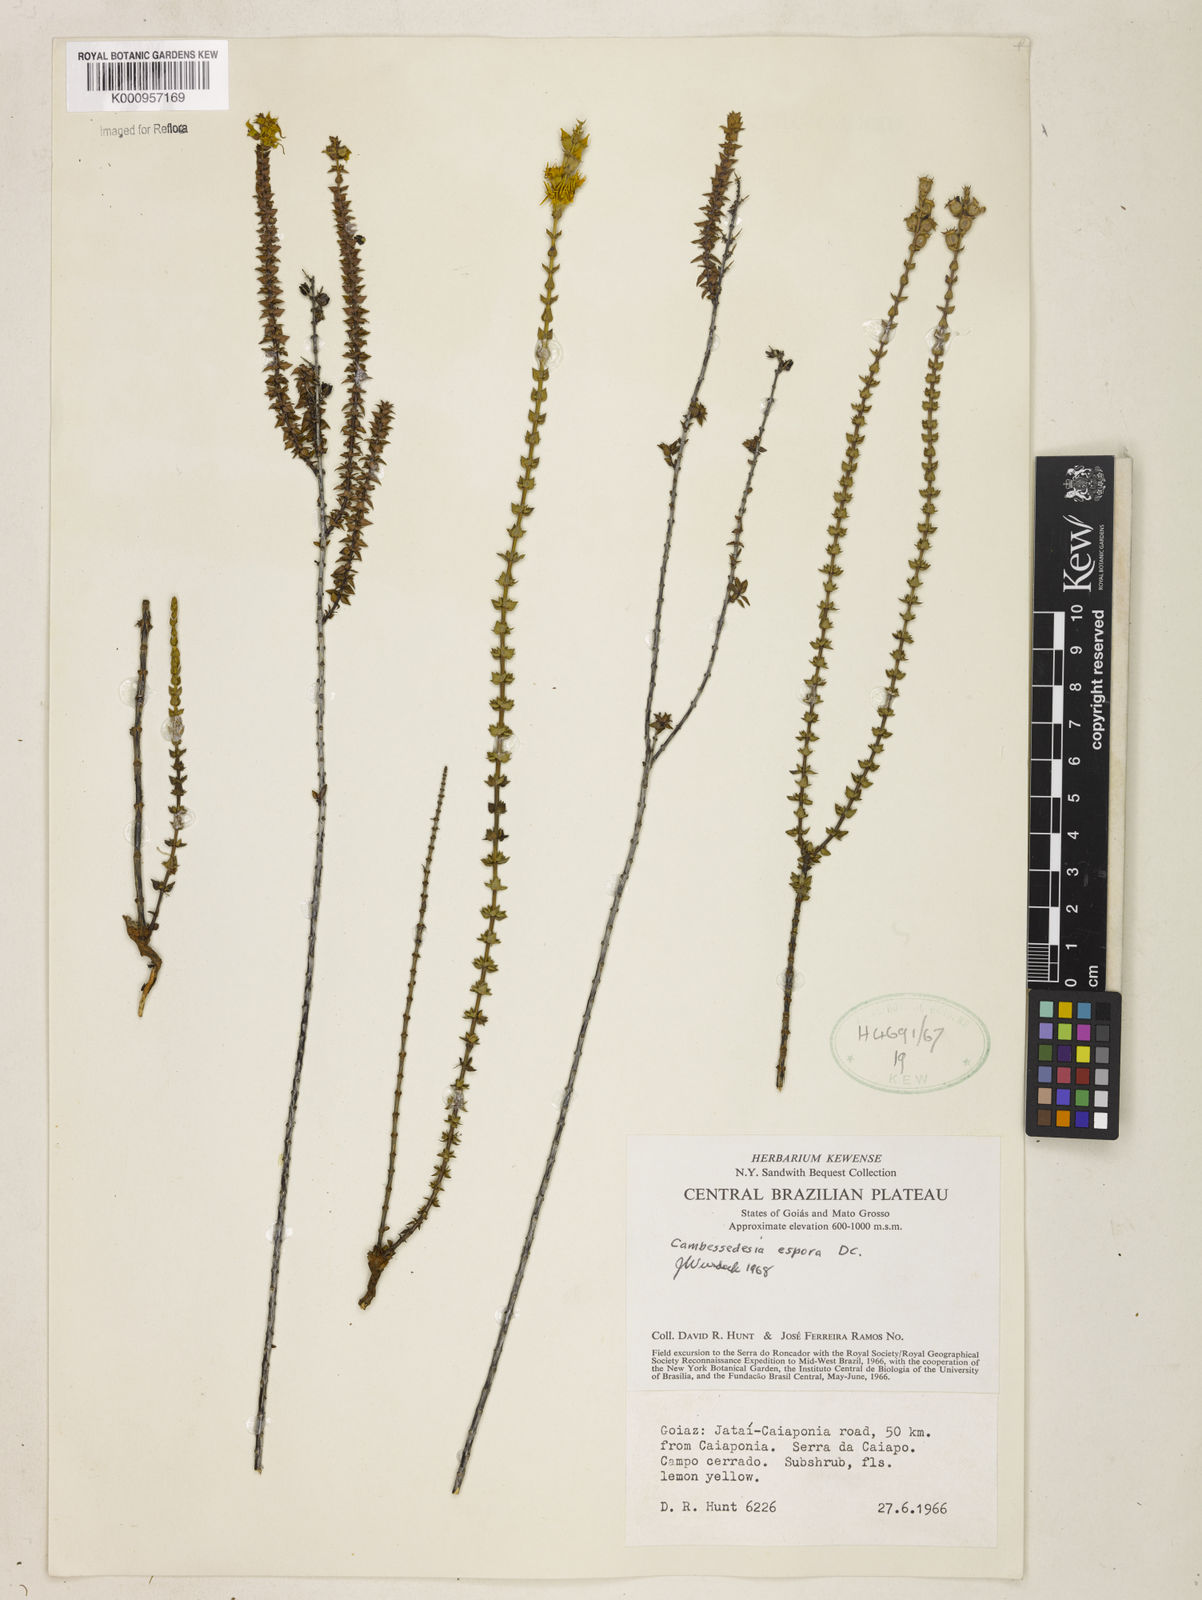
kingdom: Plantae
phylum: Tracheophyta
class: Magnoliopsida
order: Myrtales
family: Melastomataceae
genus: Cambessedesia
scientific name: Cambessedesia espora
